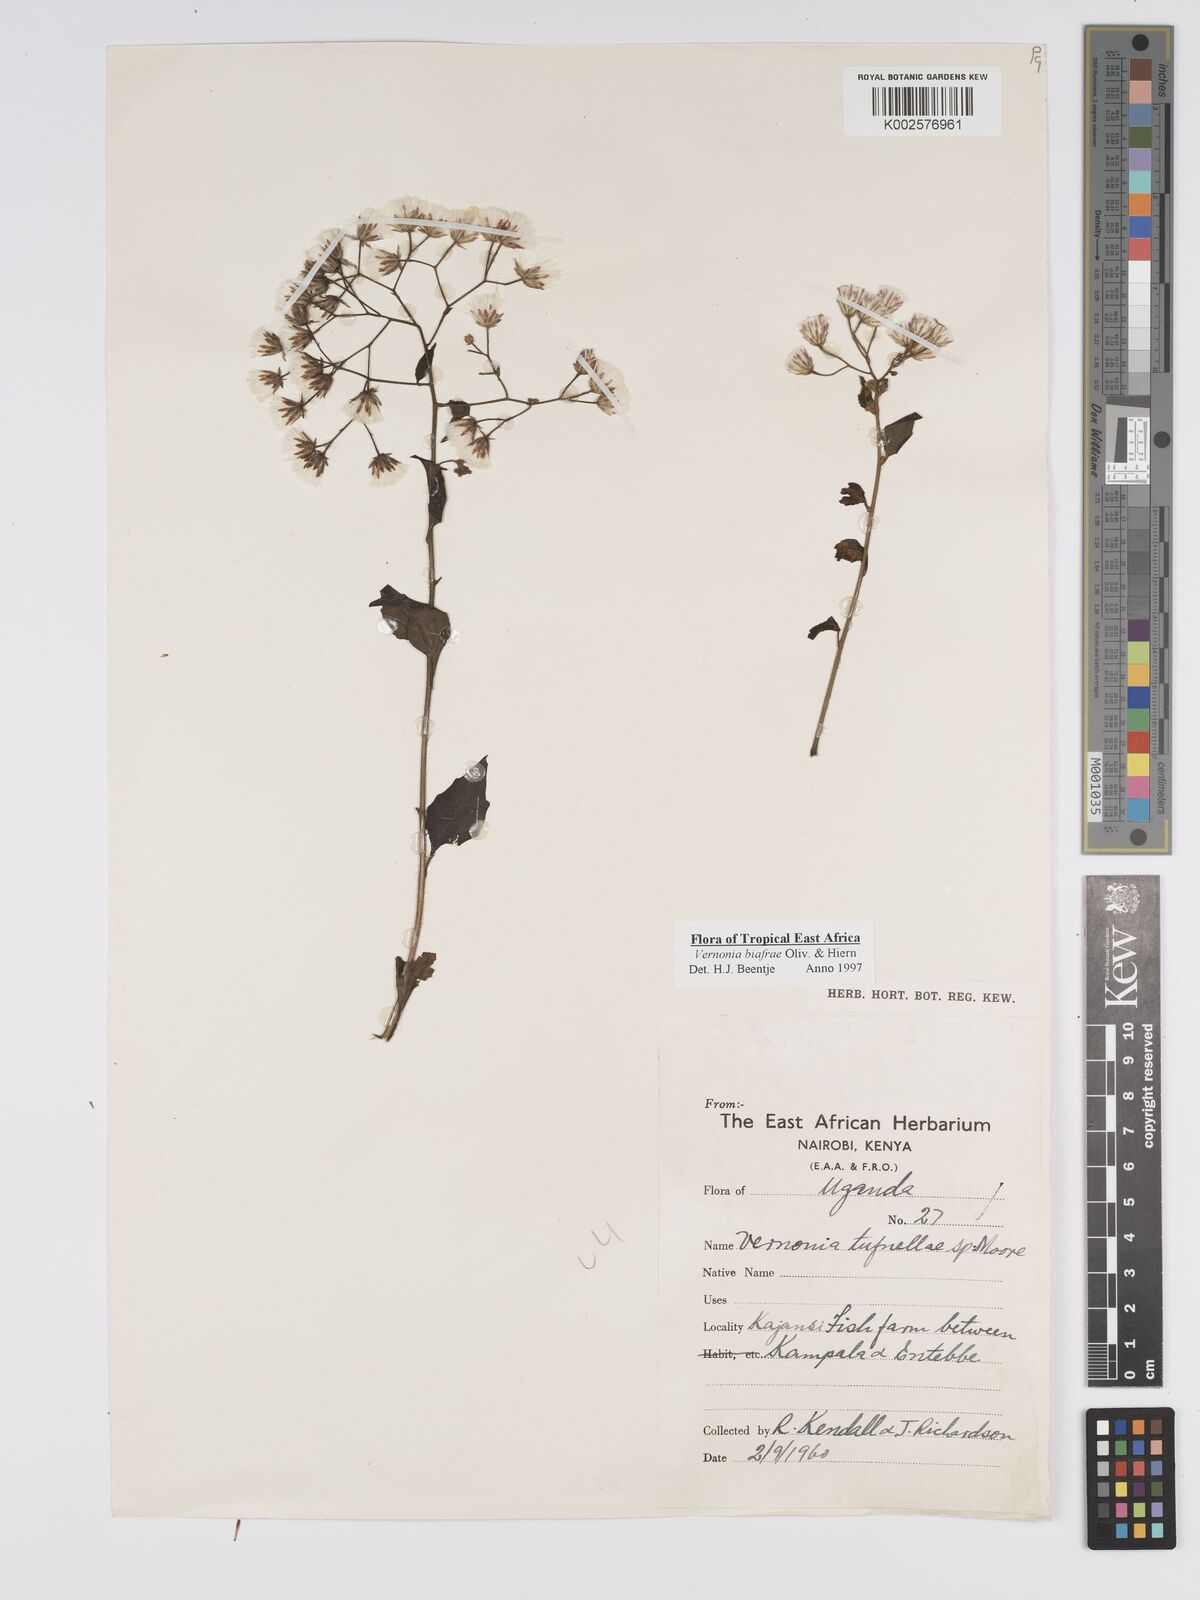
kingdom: Plantae
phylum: Tracheophyta
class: Magnoliopsida
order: Asterales
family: Asteraceae
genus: Distephanus
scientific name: Distephanus biafrae
